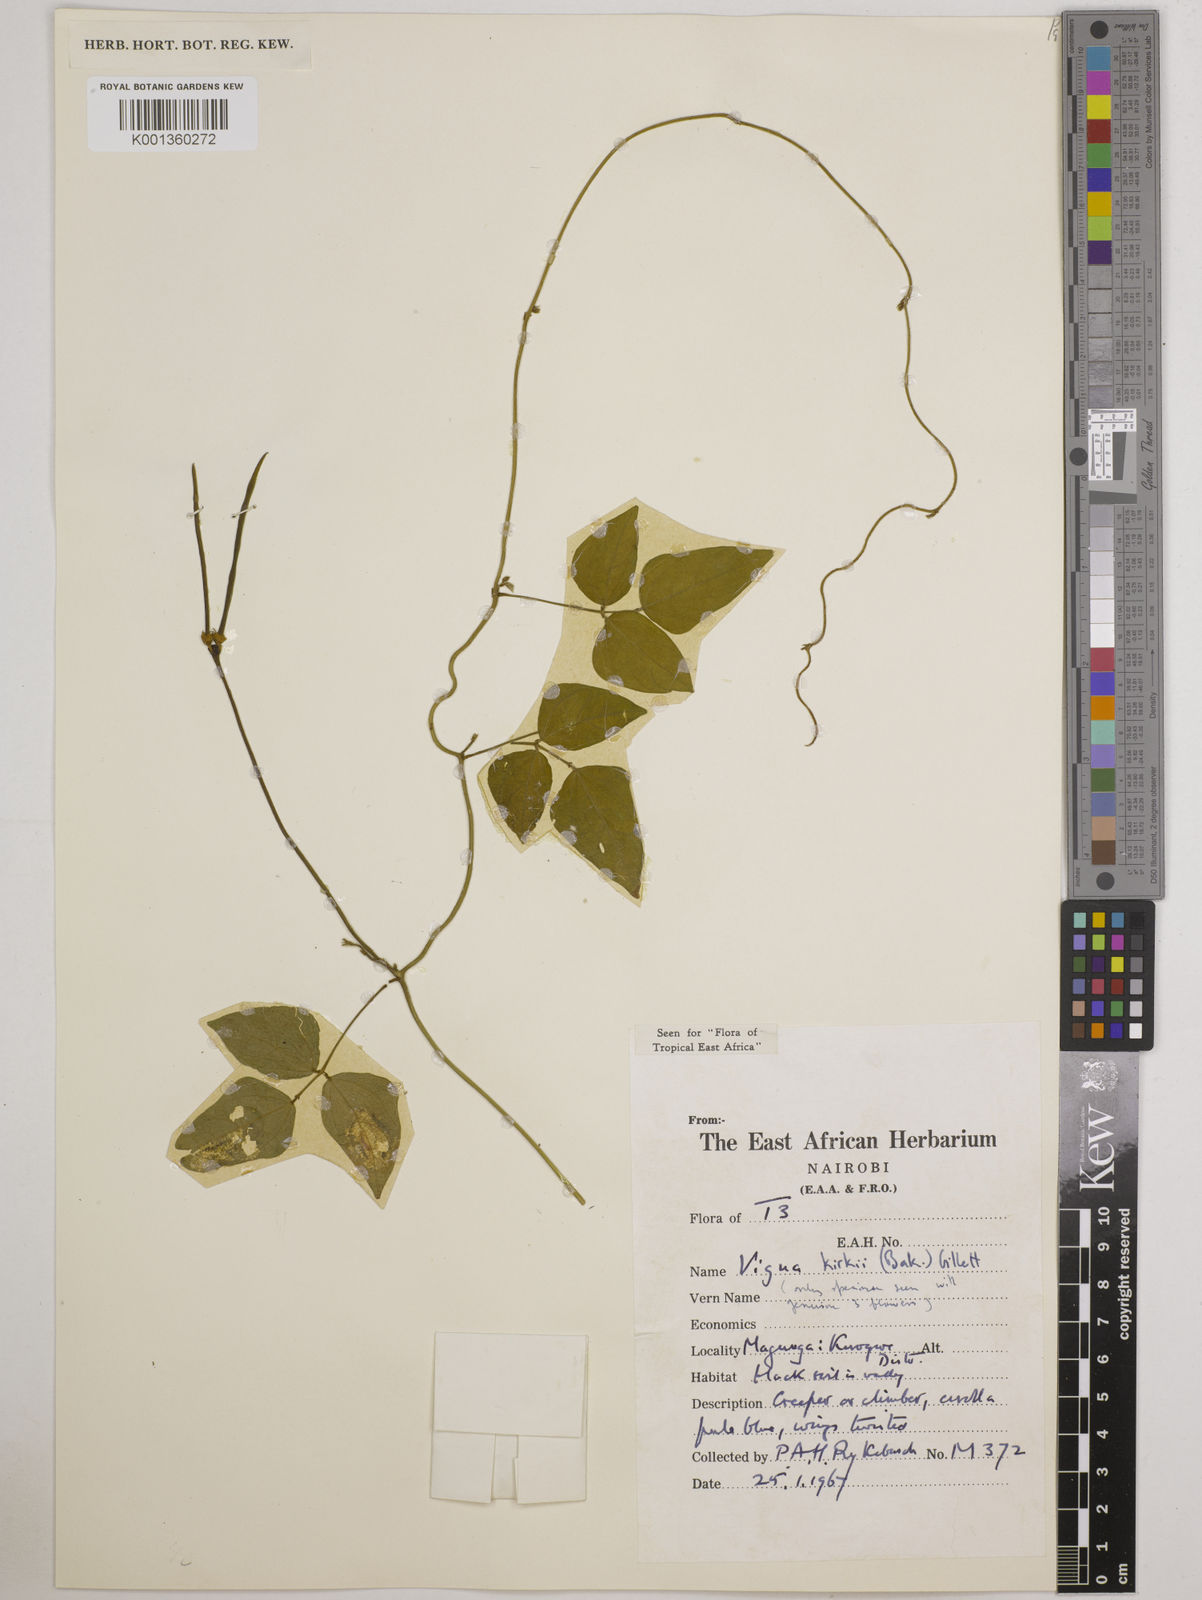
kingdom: Plantae
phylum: Tracheophyta
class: Magnoliopsida
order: Fabales
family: Fabaceae
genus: Vigna
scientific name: Vigna kirkii
